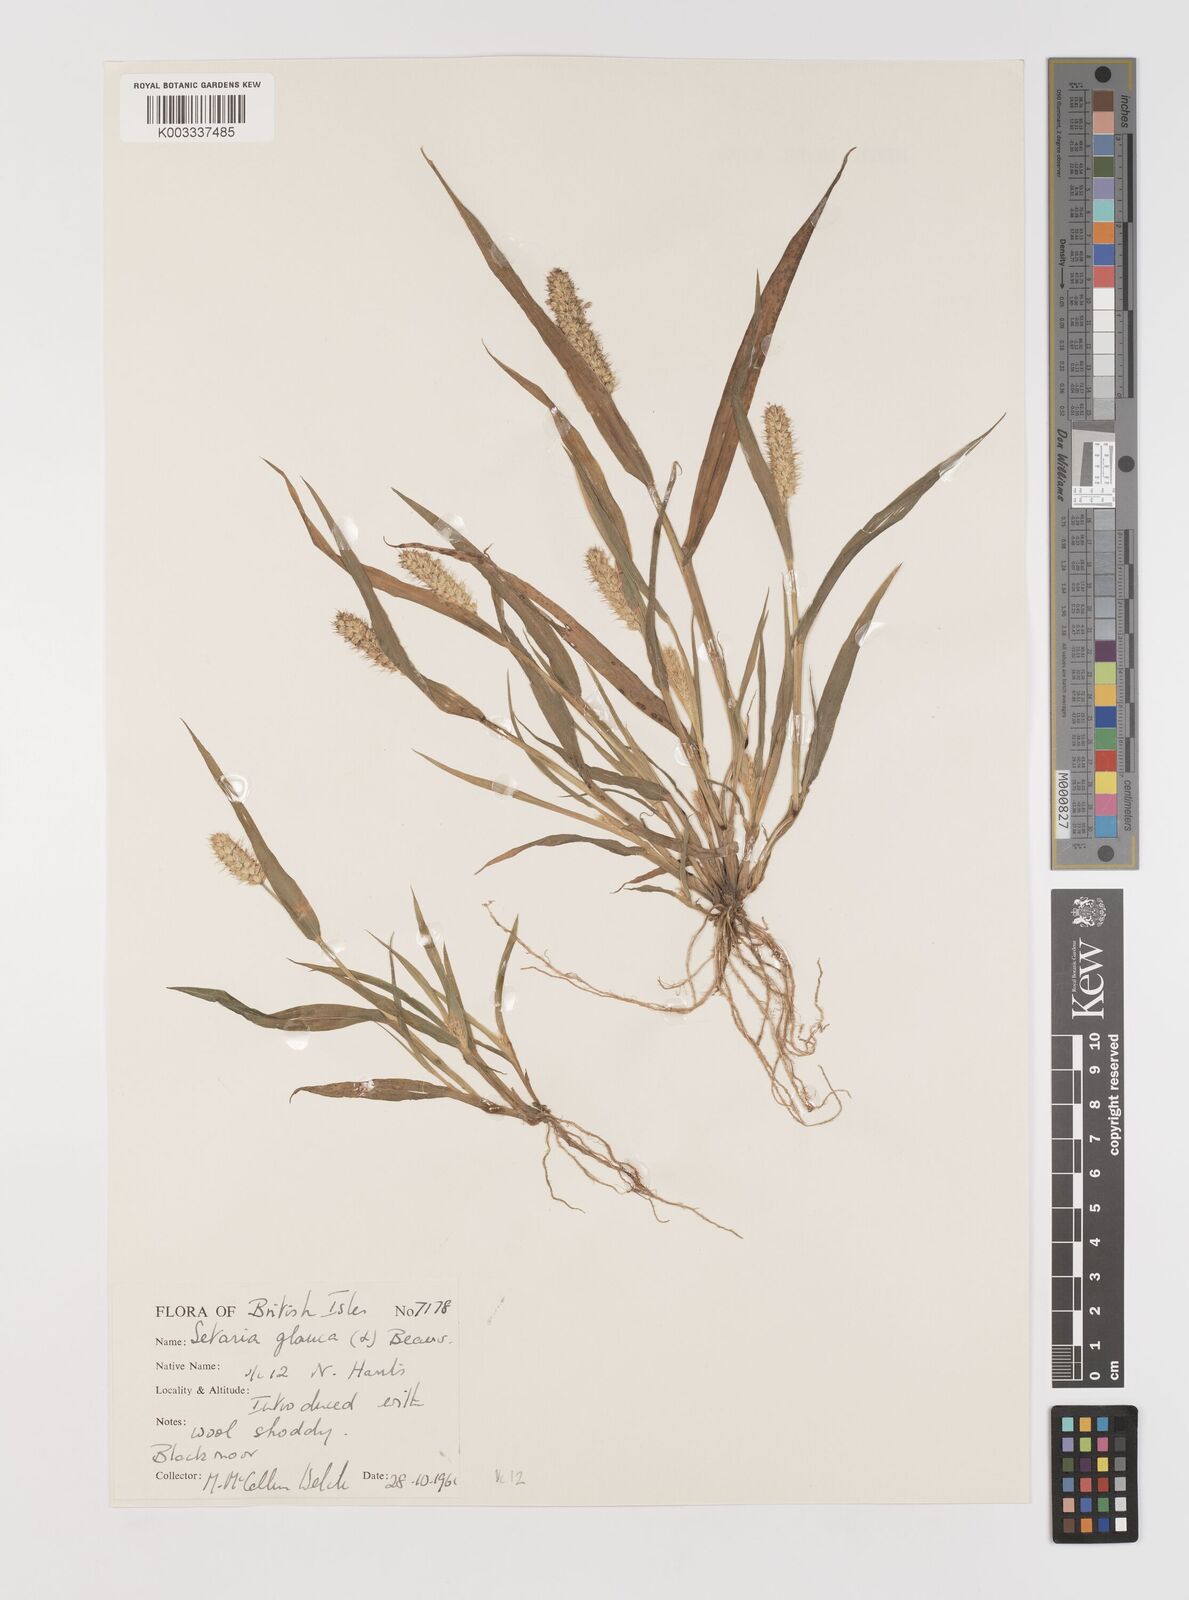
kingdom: Plantae
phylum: Tracheophyta
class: Liliopsida
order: Poales
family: Poaceae
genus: Setaria
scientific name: Setaria pumila
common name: Yellow bristle-grass
